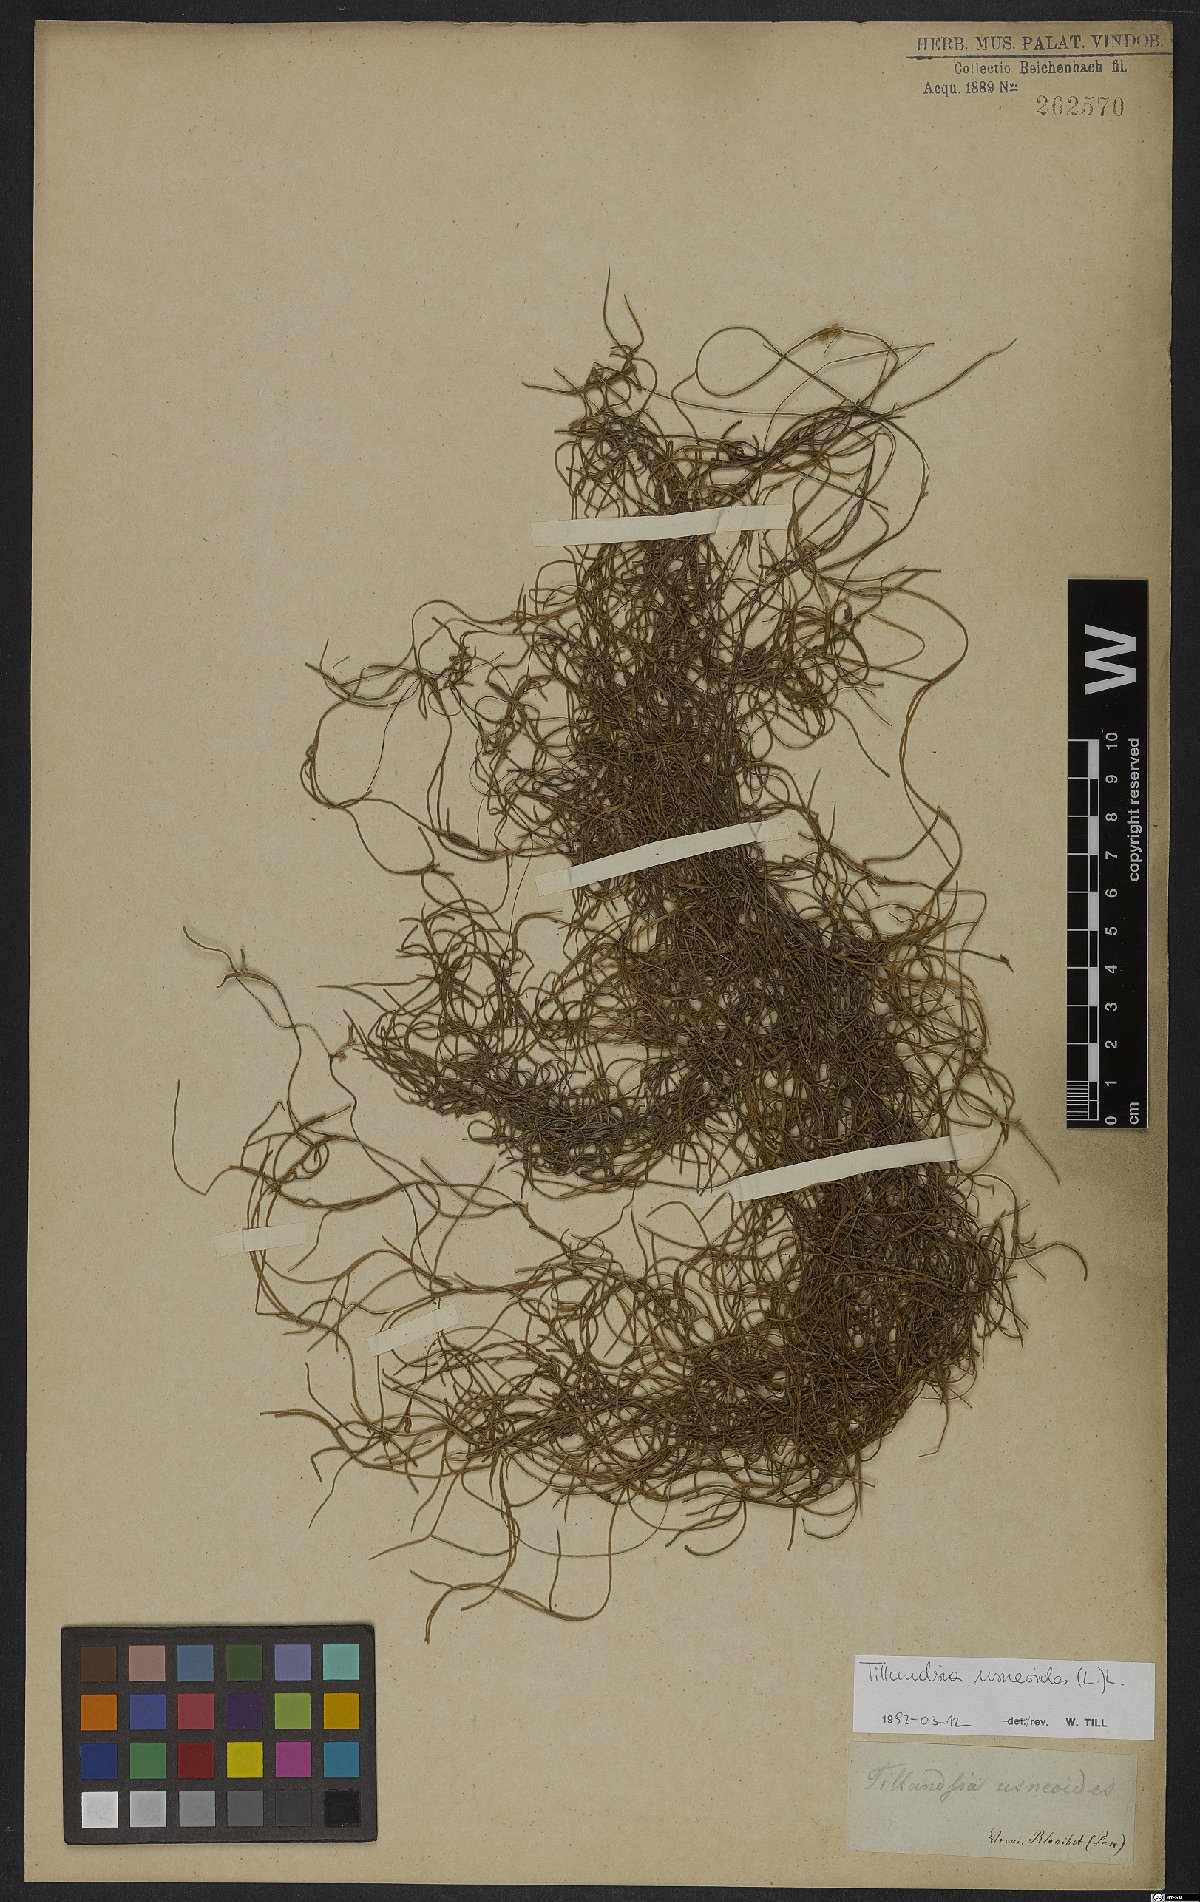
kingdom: Plantae
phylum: Tracheophyta
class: Liliopsida
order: Poales
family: Bromeliaceae
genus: Tillandsia
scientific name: Tillandsia usneoides
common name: Spanish moss
